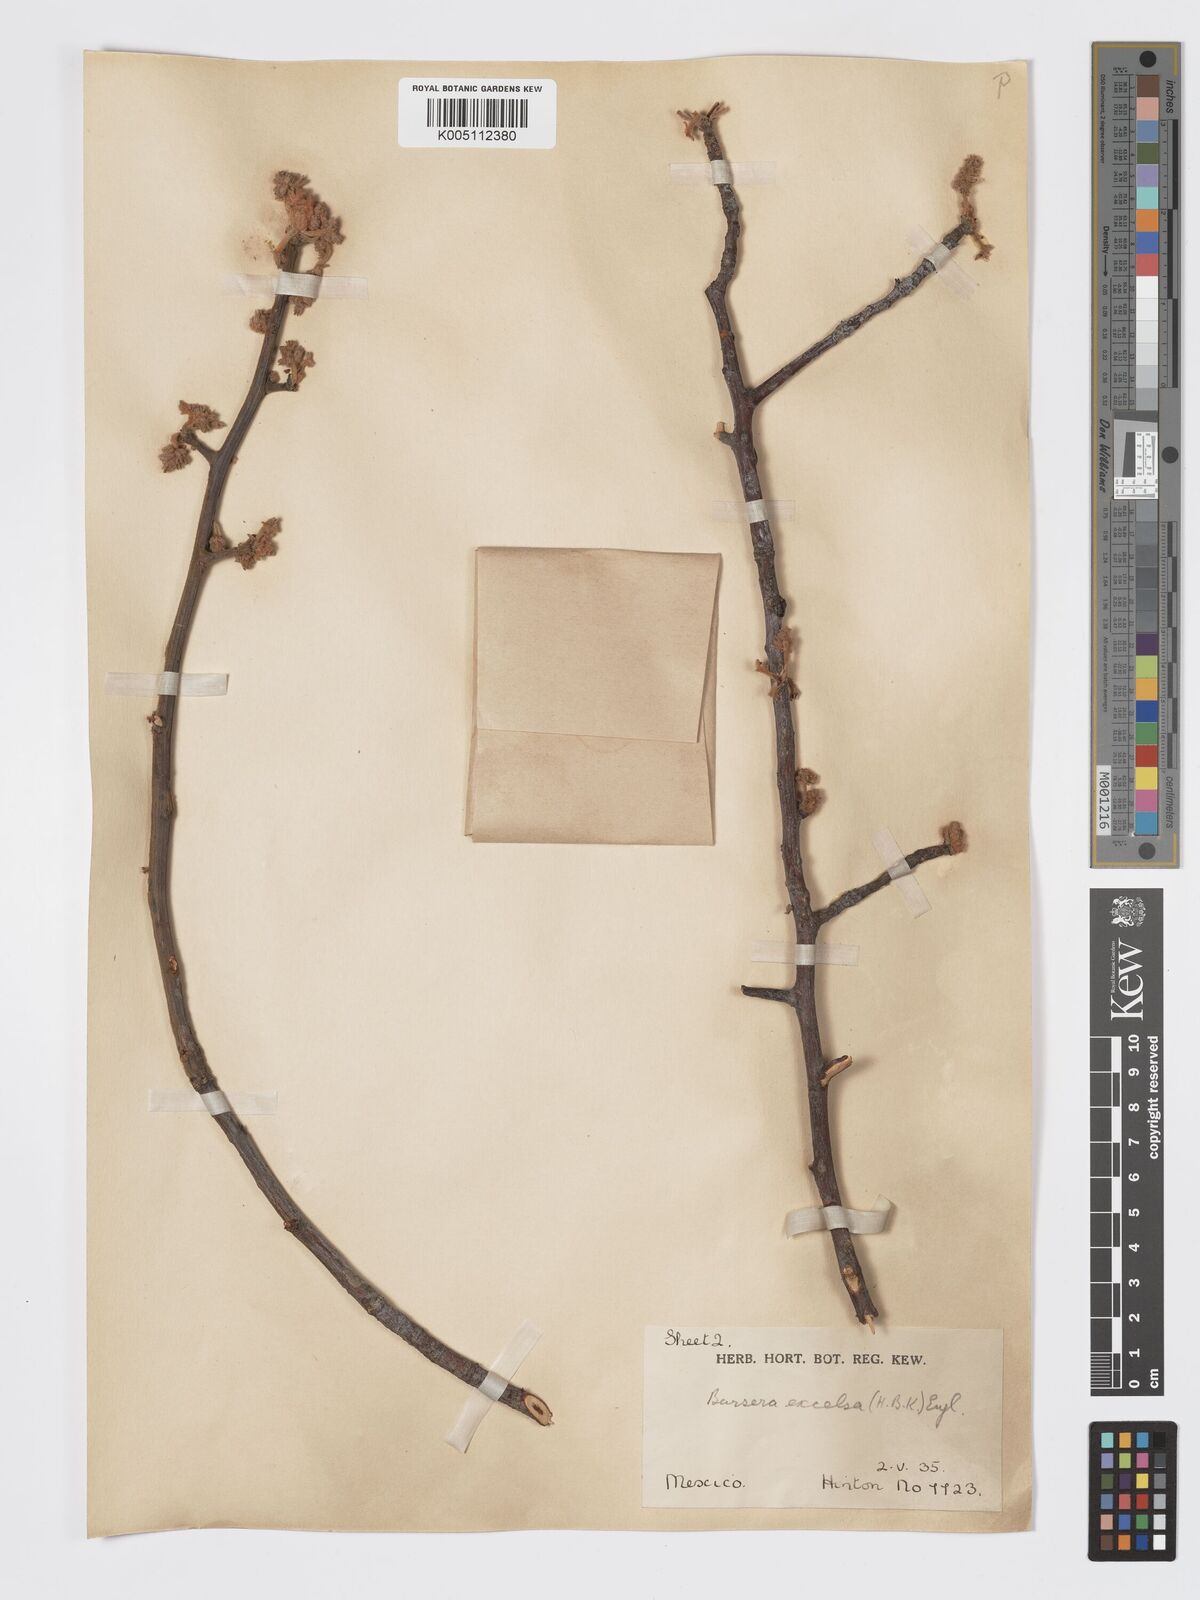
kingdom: Plantae
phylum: Tracheophyta
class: Magnoliopsida
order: Sapindales
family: Burseraceae
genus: Bursera
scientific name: Bursera excelsa
